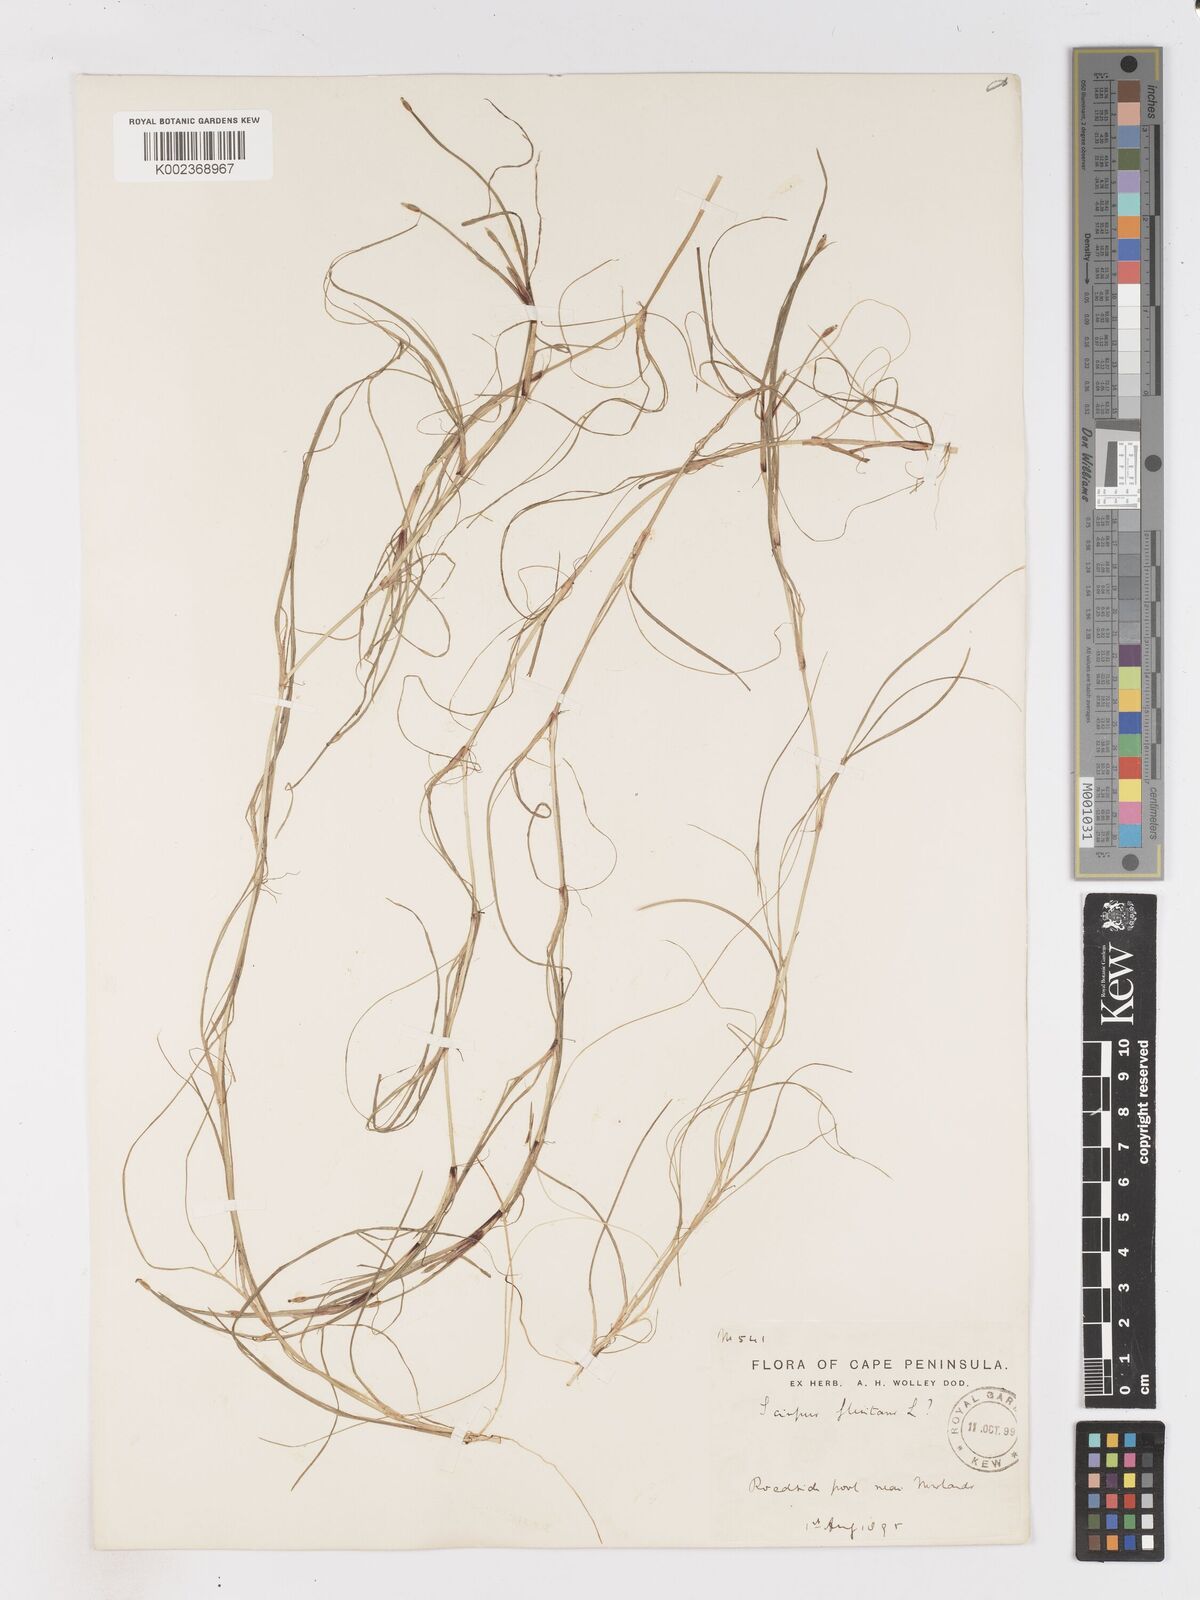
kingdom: Plantae
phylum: Tracheophyta
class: Liliopsida
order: Poales
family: Cyperaceae
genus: Isolepis
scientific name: Isolepis striata
